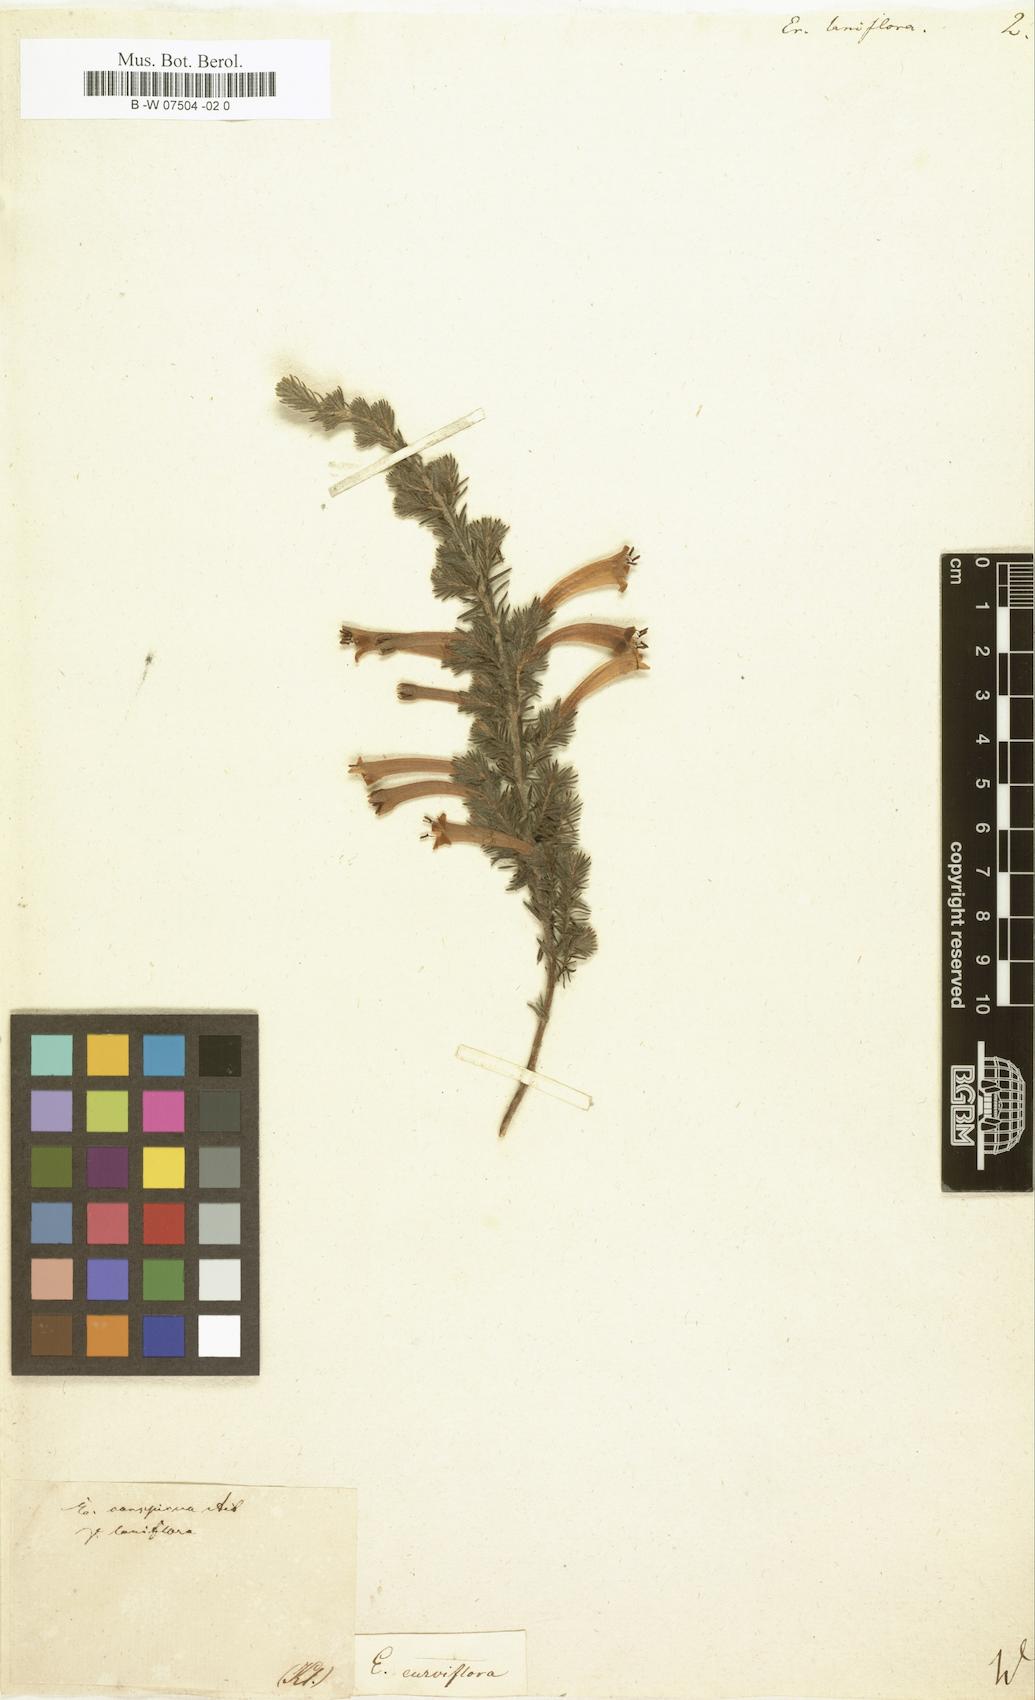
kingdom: Plantae
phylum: Tracheophyta
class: Magnoliopsida
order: Ericales
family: Ericaceae
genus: Erica
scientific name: Erica
